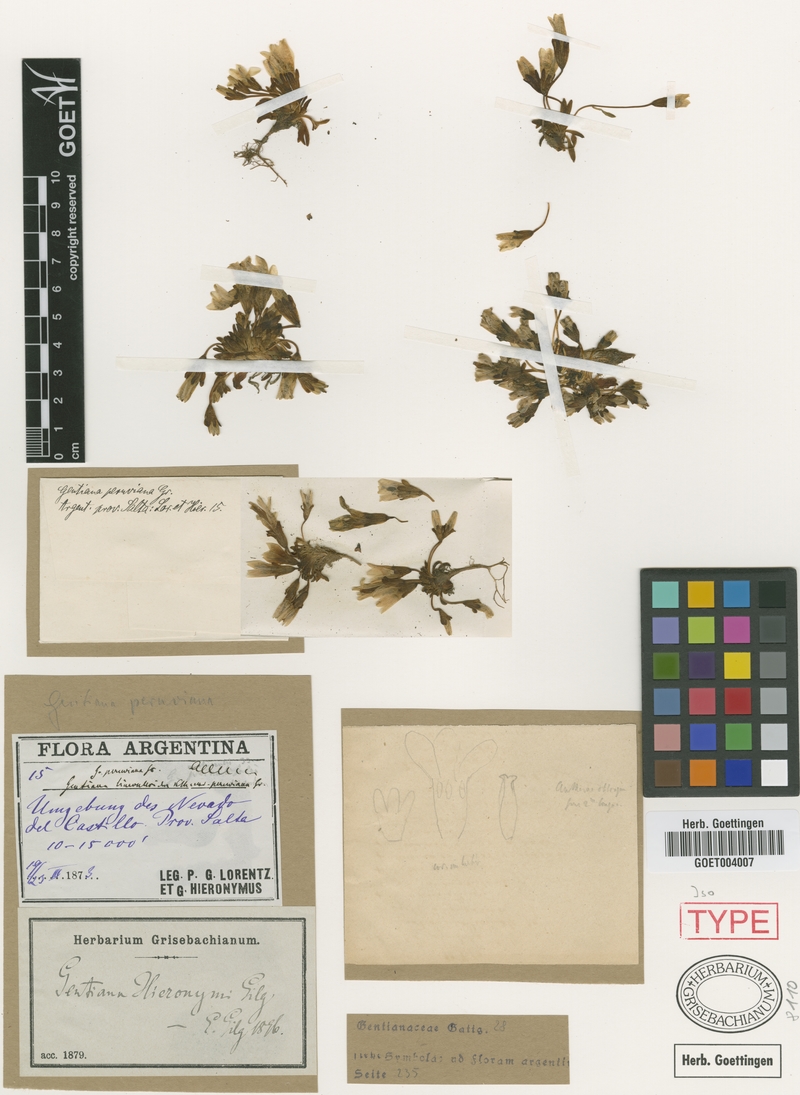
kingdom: Plantae
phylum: Tracheophyta
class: Magnoliopsida
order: Gentianales
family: Gentianaceae
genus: Gentianella
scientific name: Gentianella hieronymi
